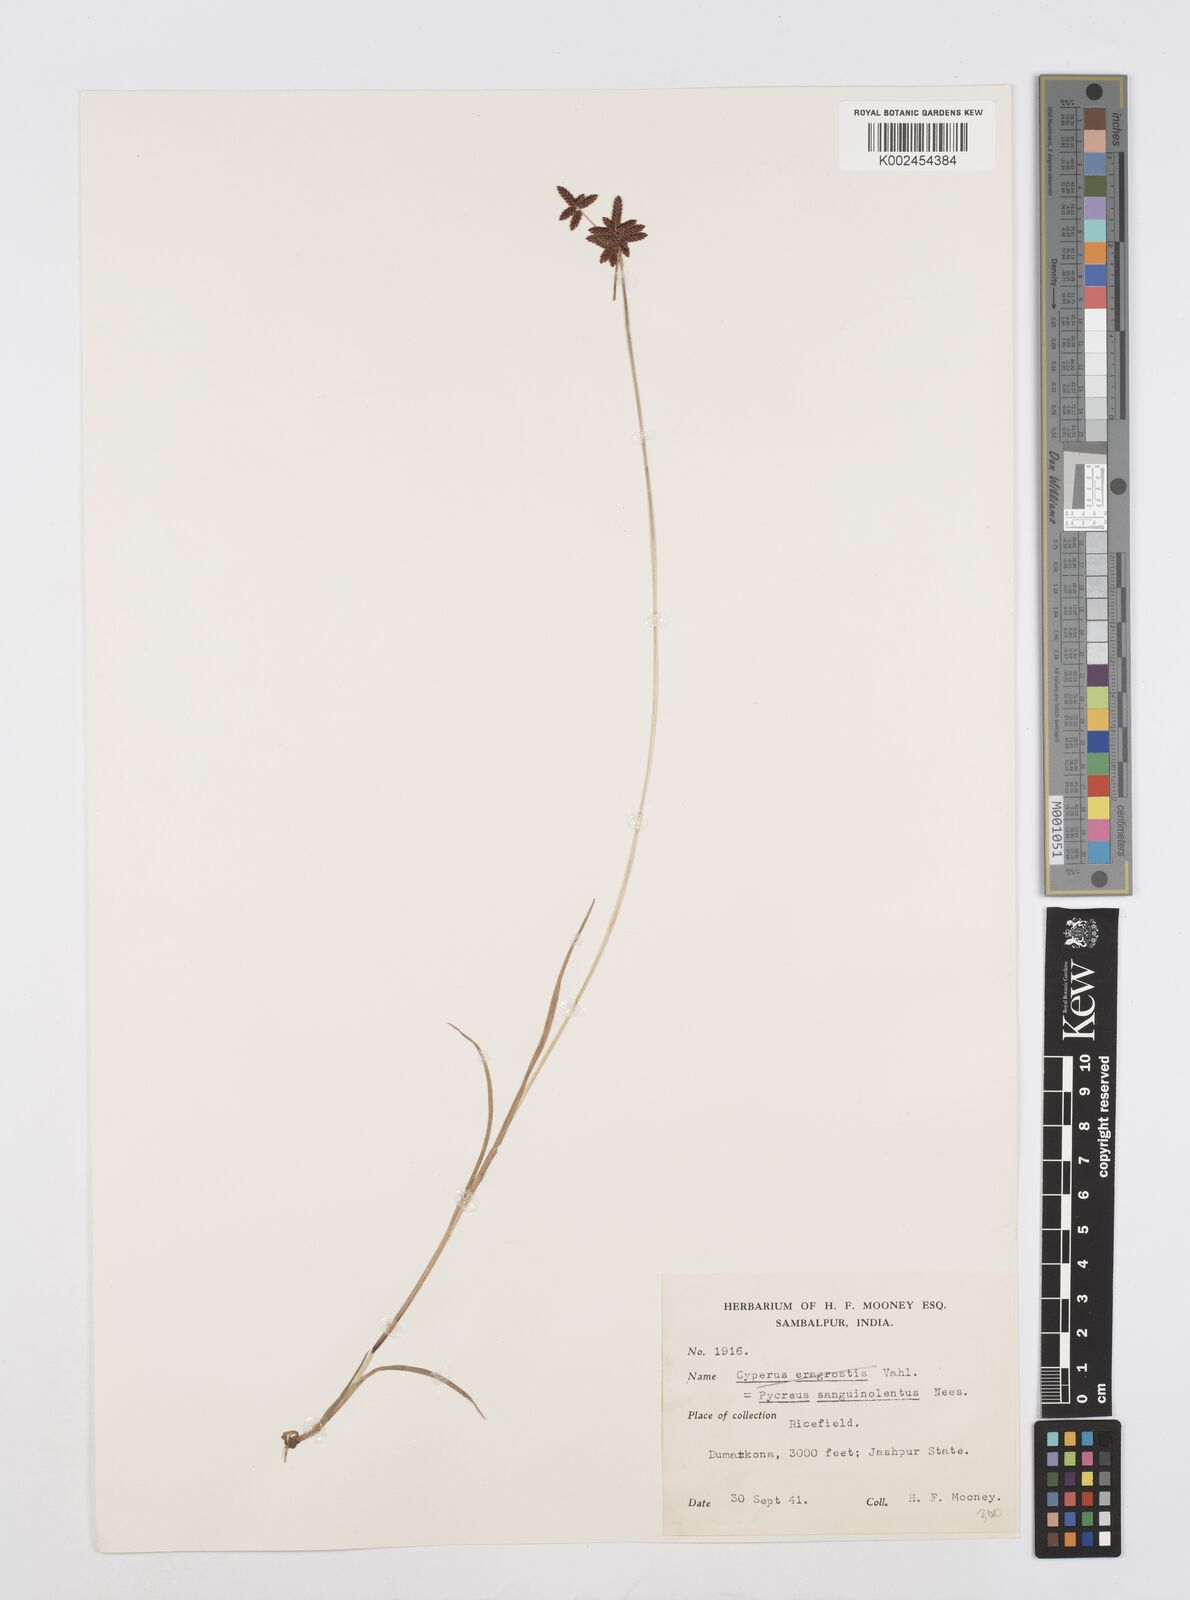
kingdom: Plantae
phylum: Tracheophyta
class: Liliopsida
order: Poales
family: Cyperaceae
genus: Cyperus
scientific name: Cyperus sanguinolentus
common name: Purpleglume flatsedge
